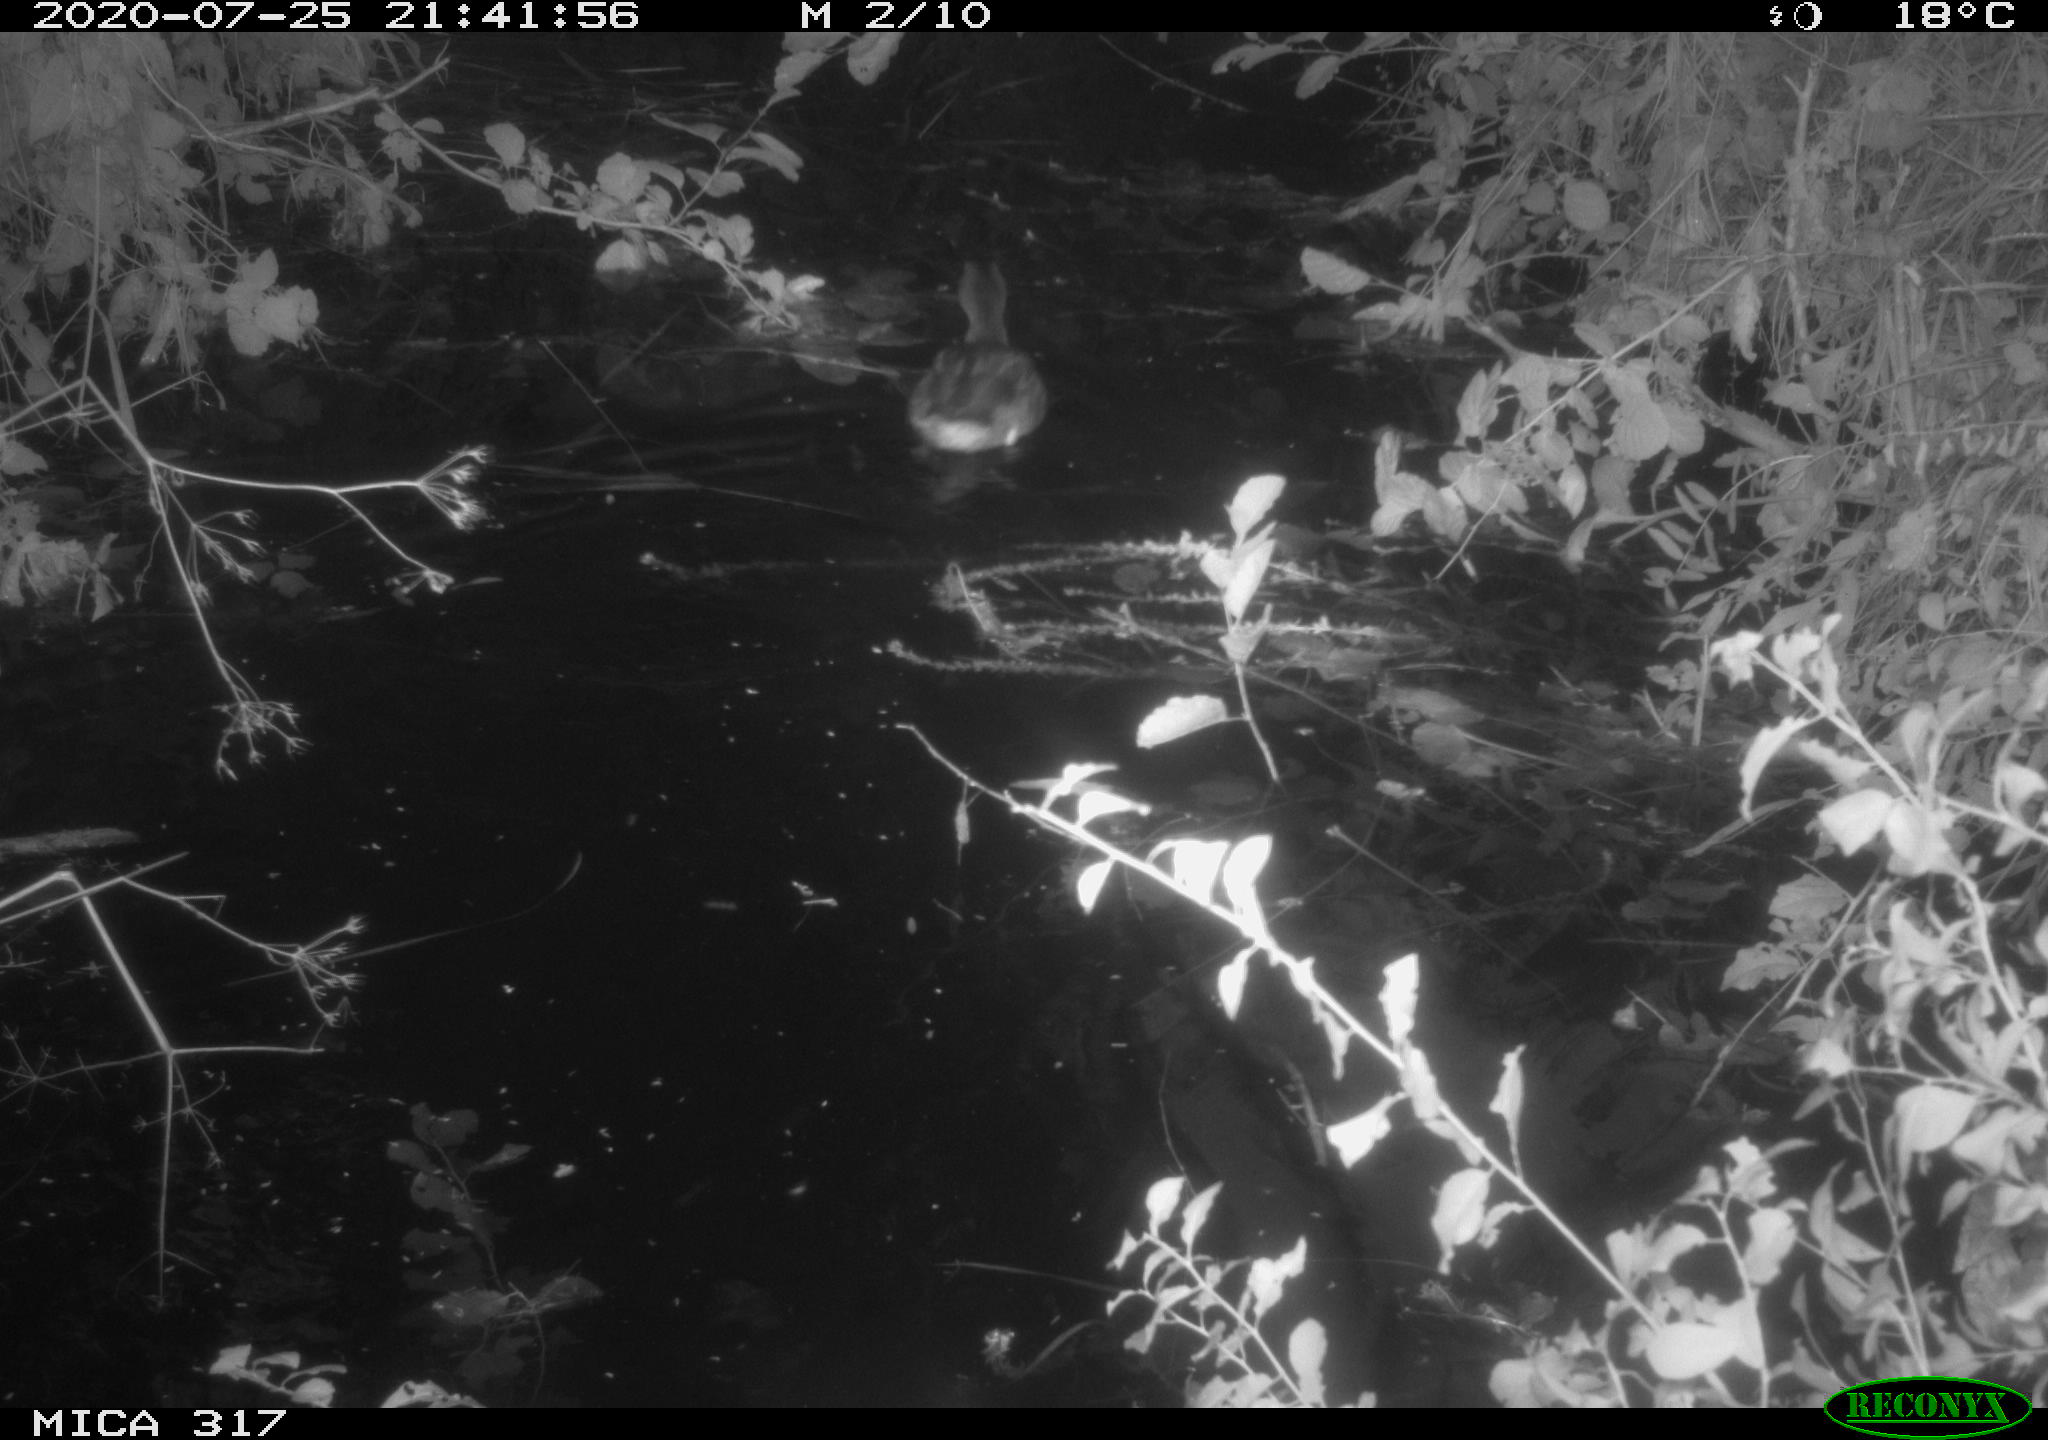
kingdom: Animalia
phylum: Chordata
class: Aves
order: Anseriformes
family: Anatidae
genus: Anas
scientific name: Anas platyrhynchos
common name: Mallard
